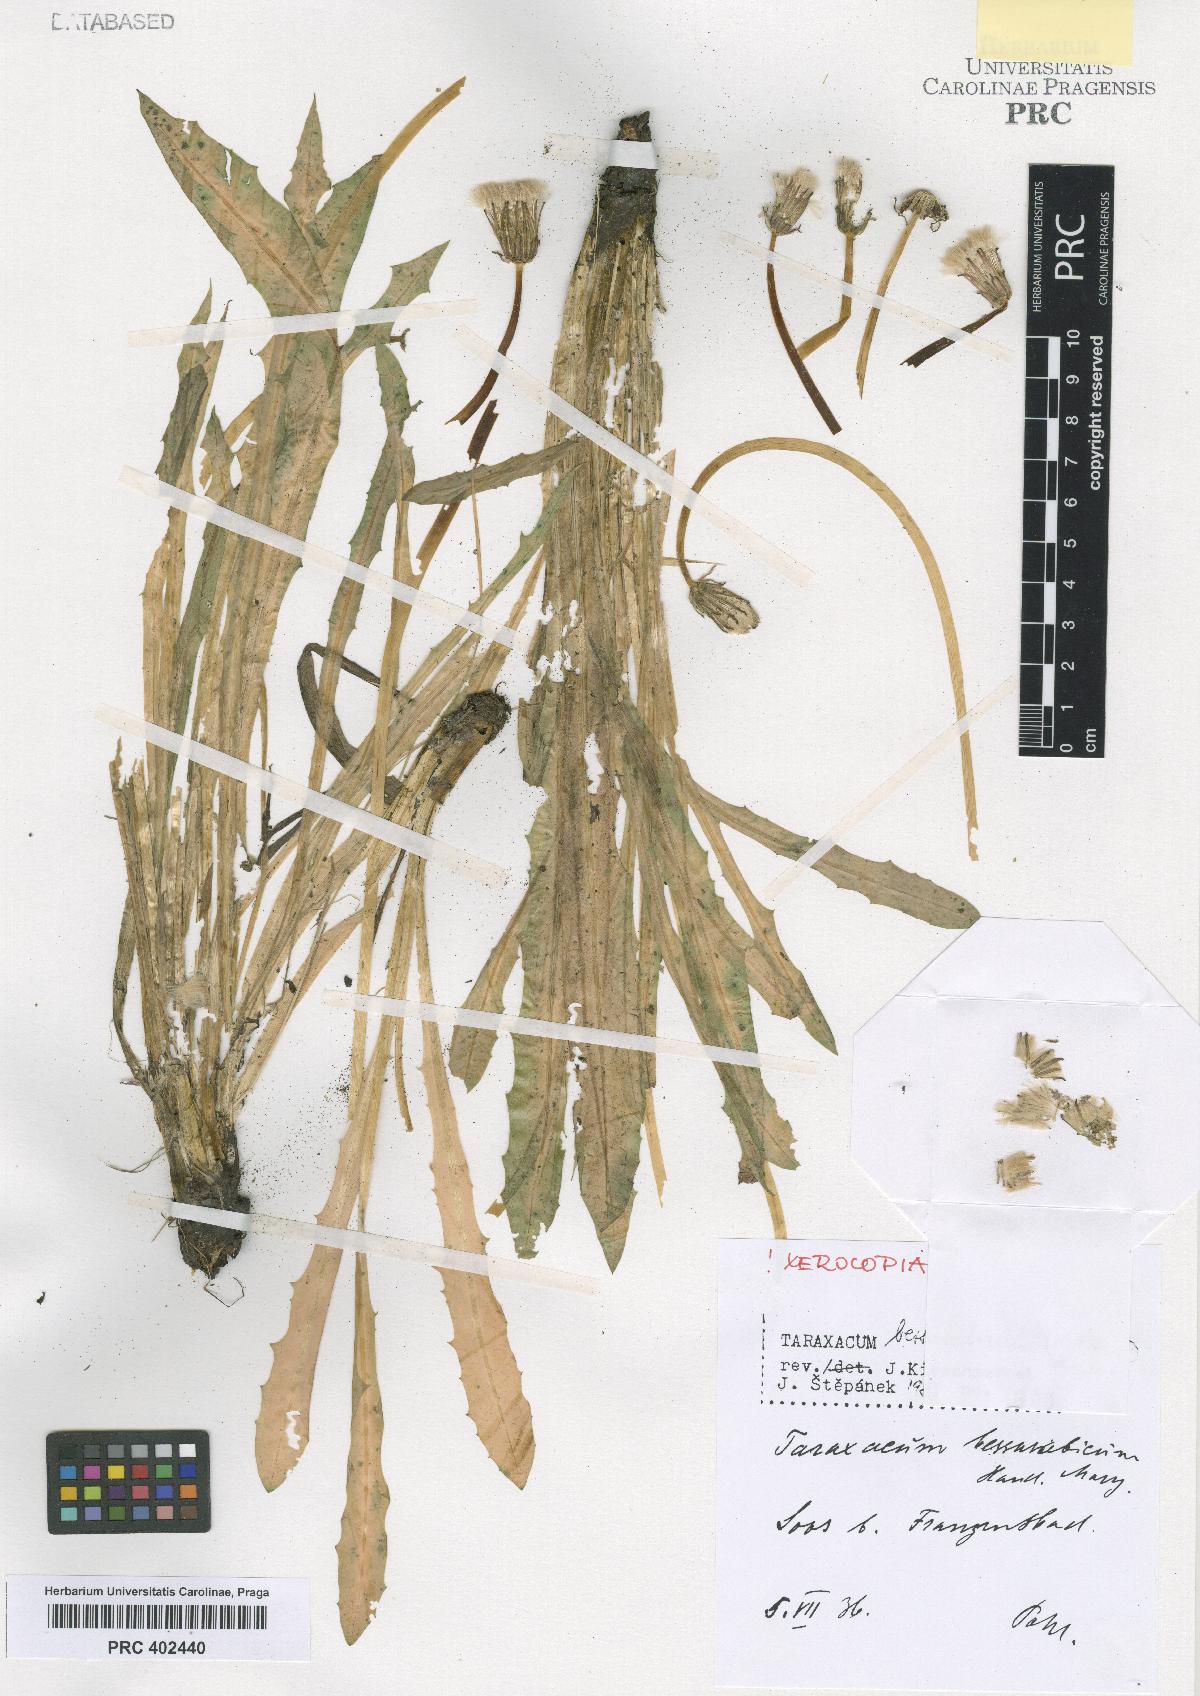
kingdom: Plantae
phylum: Tracheophyta
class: Magnoliopsida
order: Asterales
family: Asteraceae
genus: Taraxacum
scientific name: Taraxacum bessarabicum
